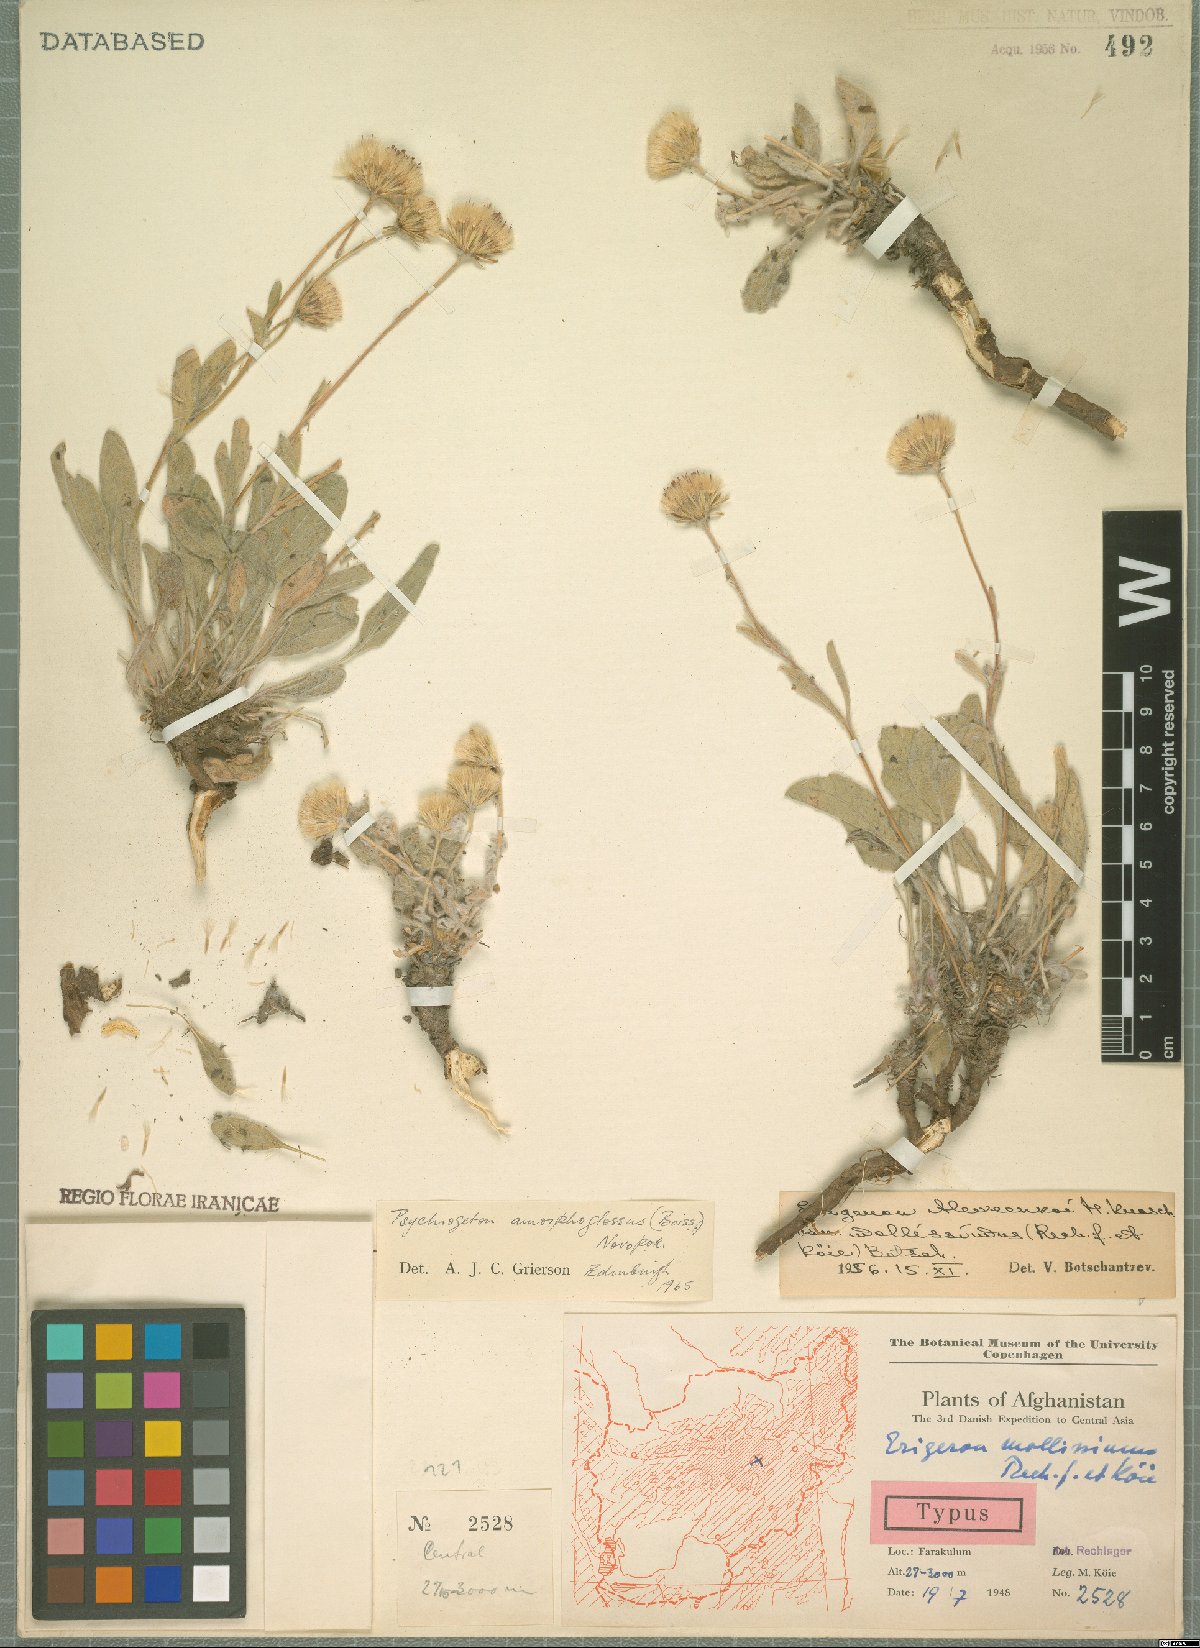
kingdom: Plantae
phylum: Tracheophyta
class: Magnoliopsida
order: Asterales
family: Asteraceae
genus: Psychrogeton
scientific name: Psychrogeton amorphoglossus
